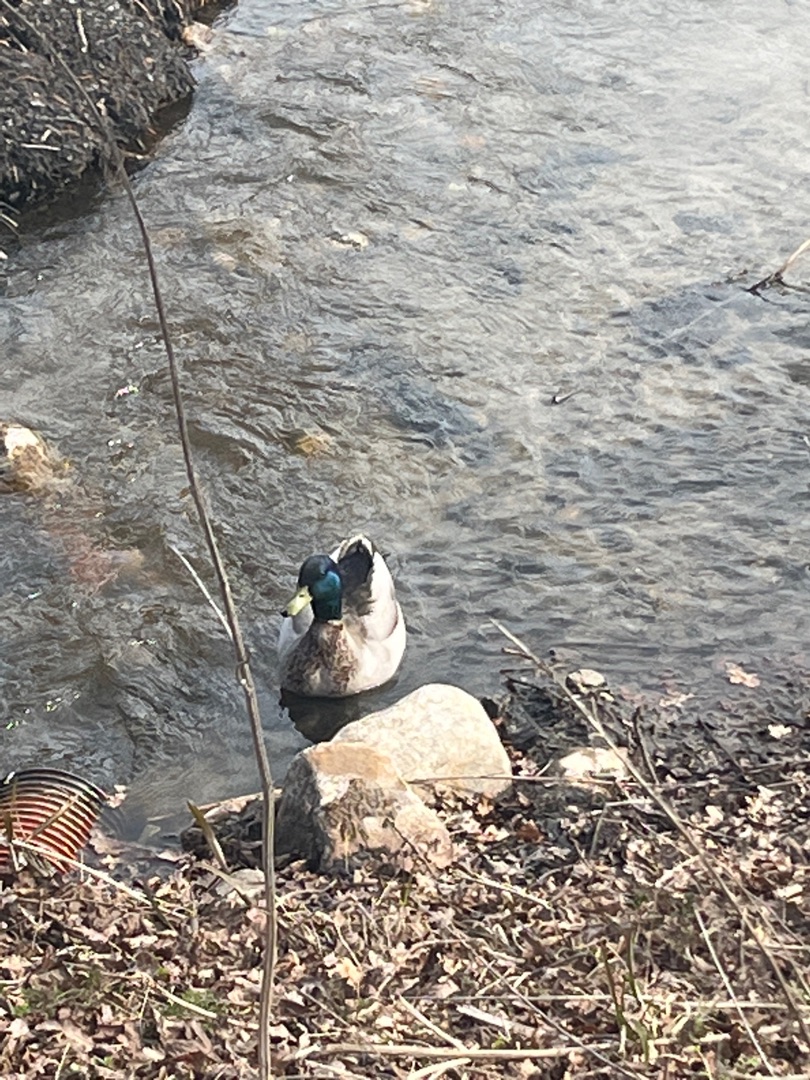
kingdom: Animalia
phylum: Chordata
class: Aves
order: Anseriformes
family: Anatidae
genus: Anas
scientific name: Anas platyrhynchos
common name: Gråand
